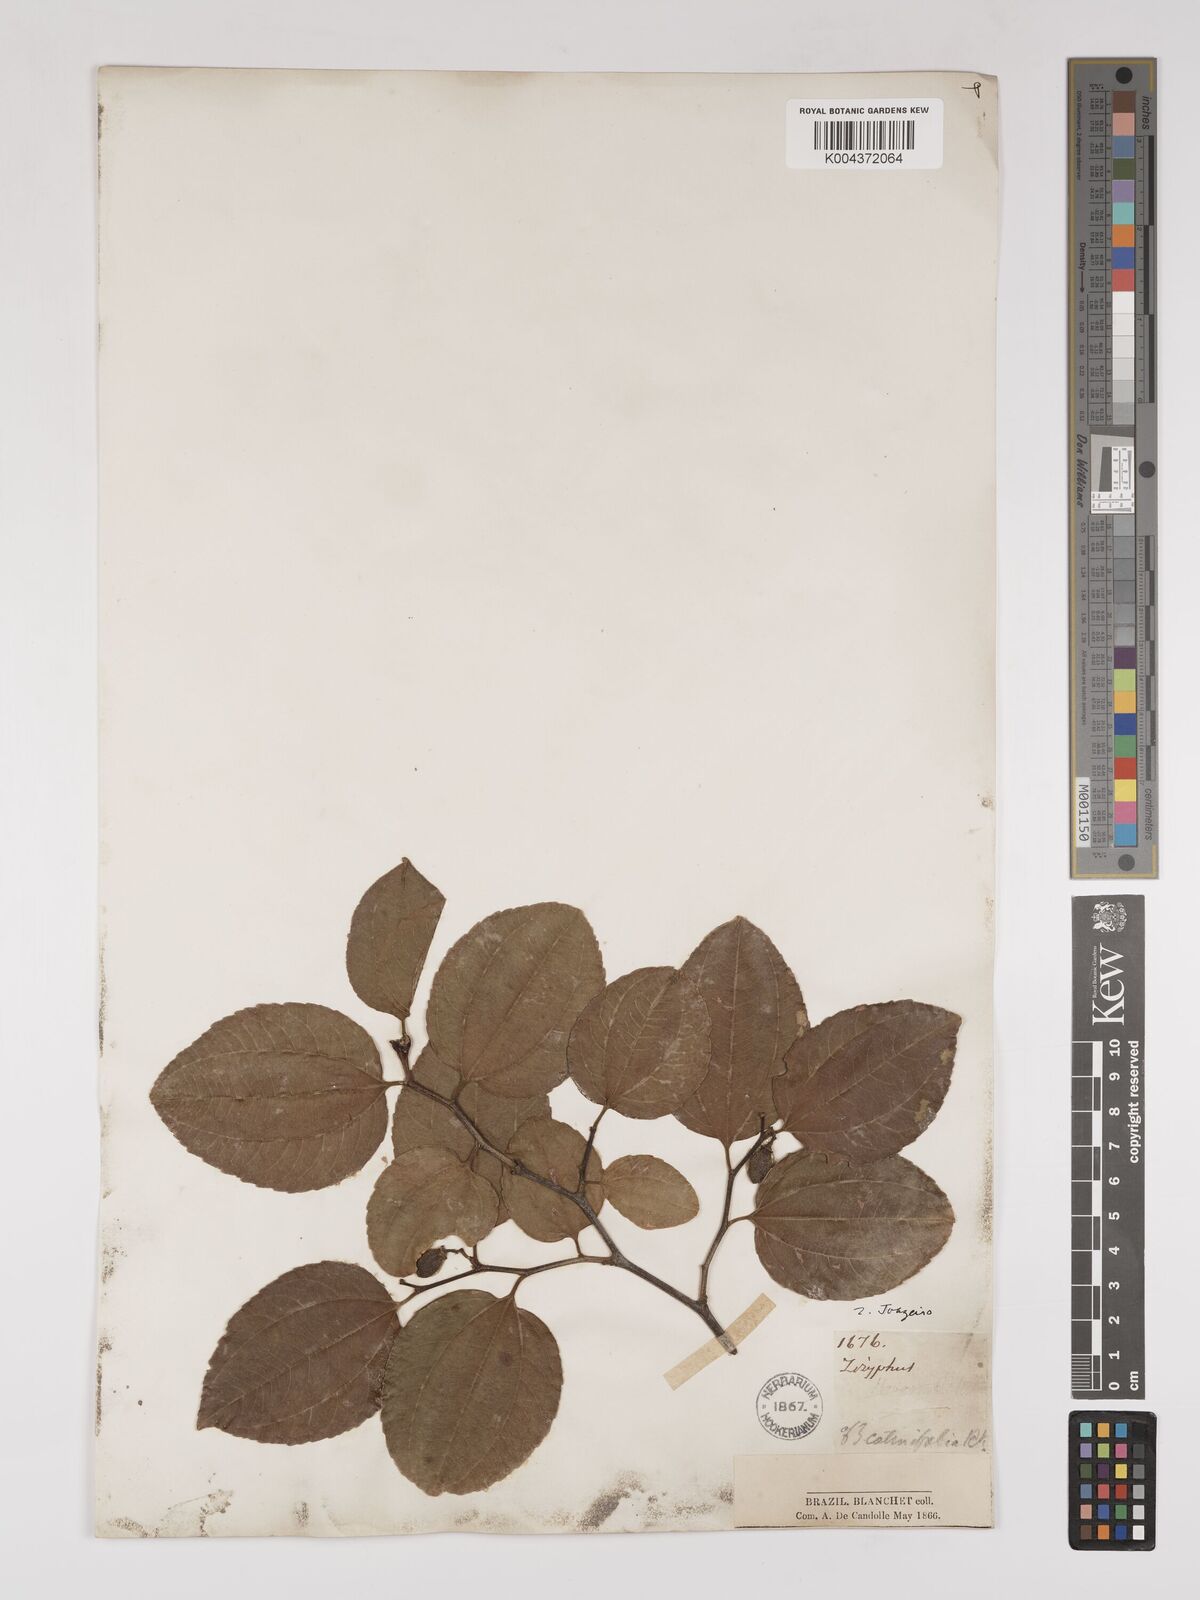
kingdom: Plantae
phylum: Tracheophyta
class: Magnoliopsida
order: Rosales
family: Rhamnaceae
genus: Sarcomphalus
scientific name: Sarcomphalus cotinifolius
